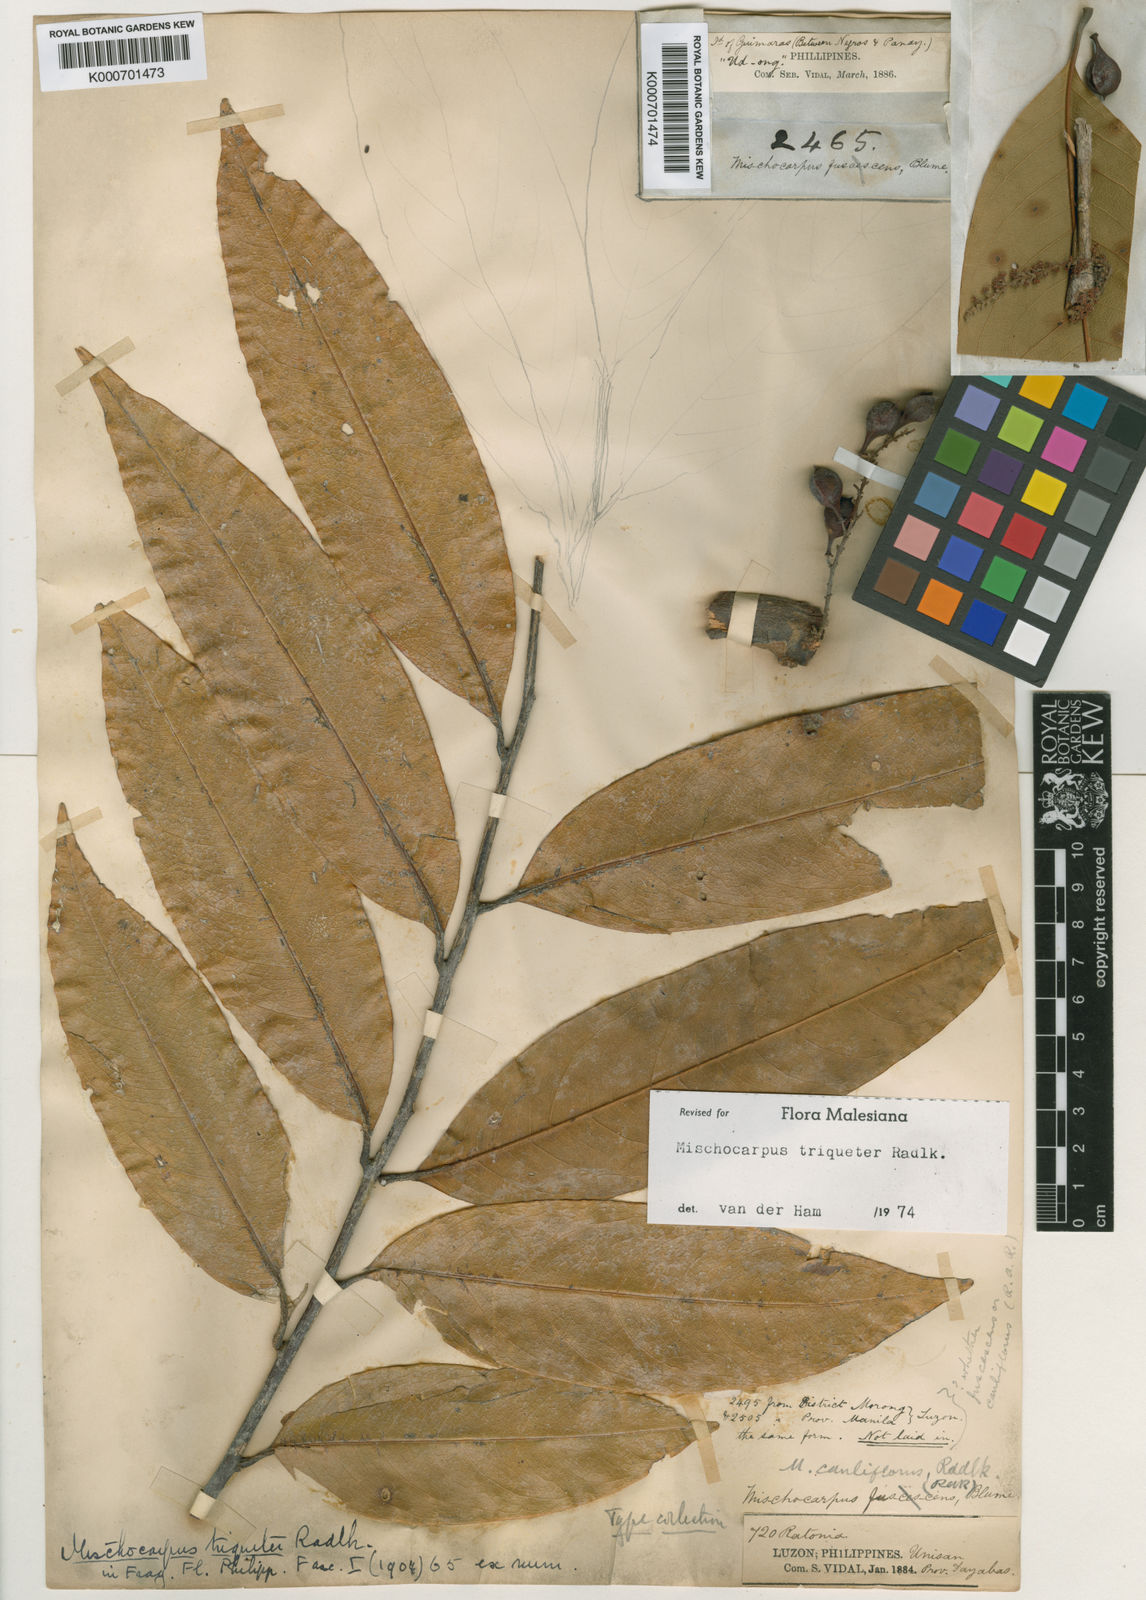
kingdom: Plantae
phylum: Tracheophyta
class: Magnoliopsida
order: Sapindales
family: Sapindaceae
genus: Mischocarpus
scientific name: Mischocarpus triqueter
